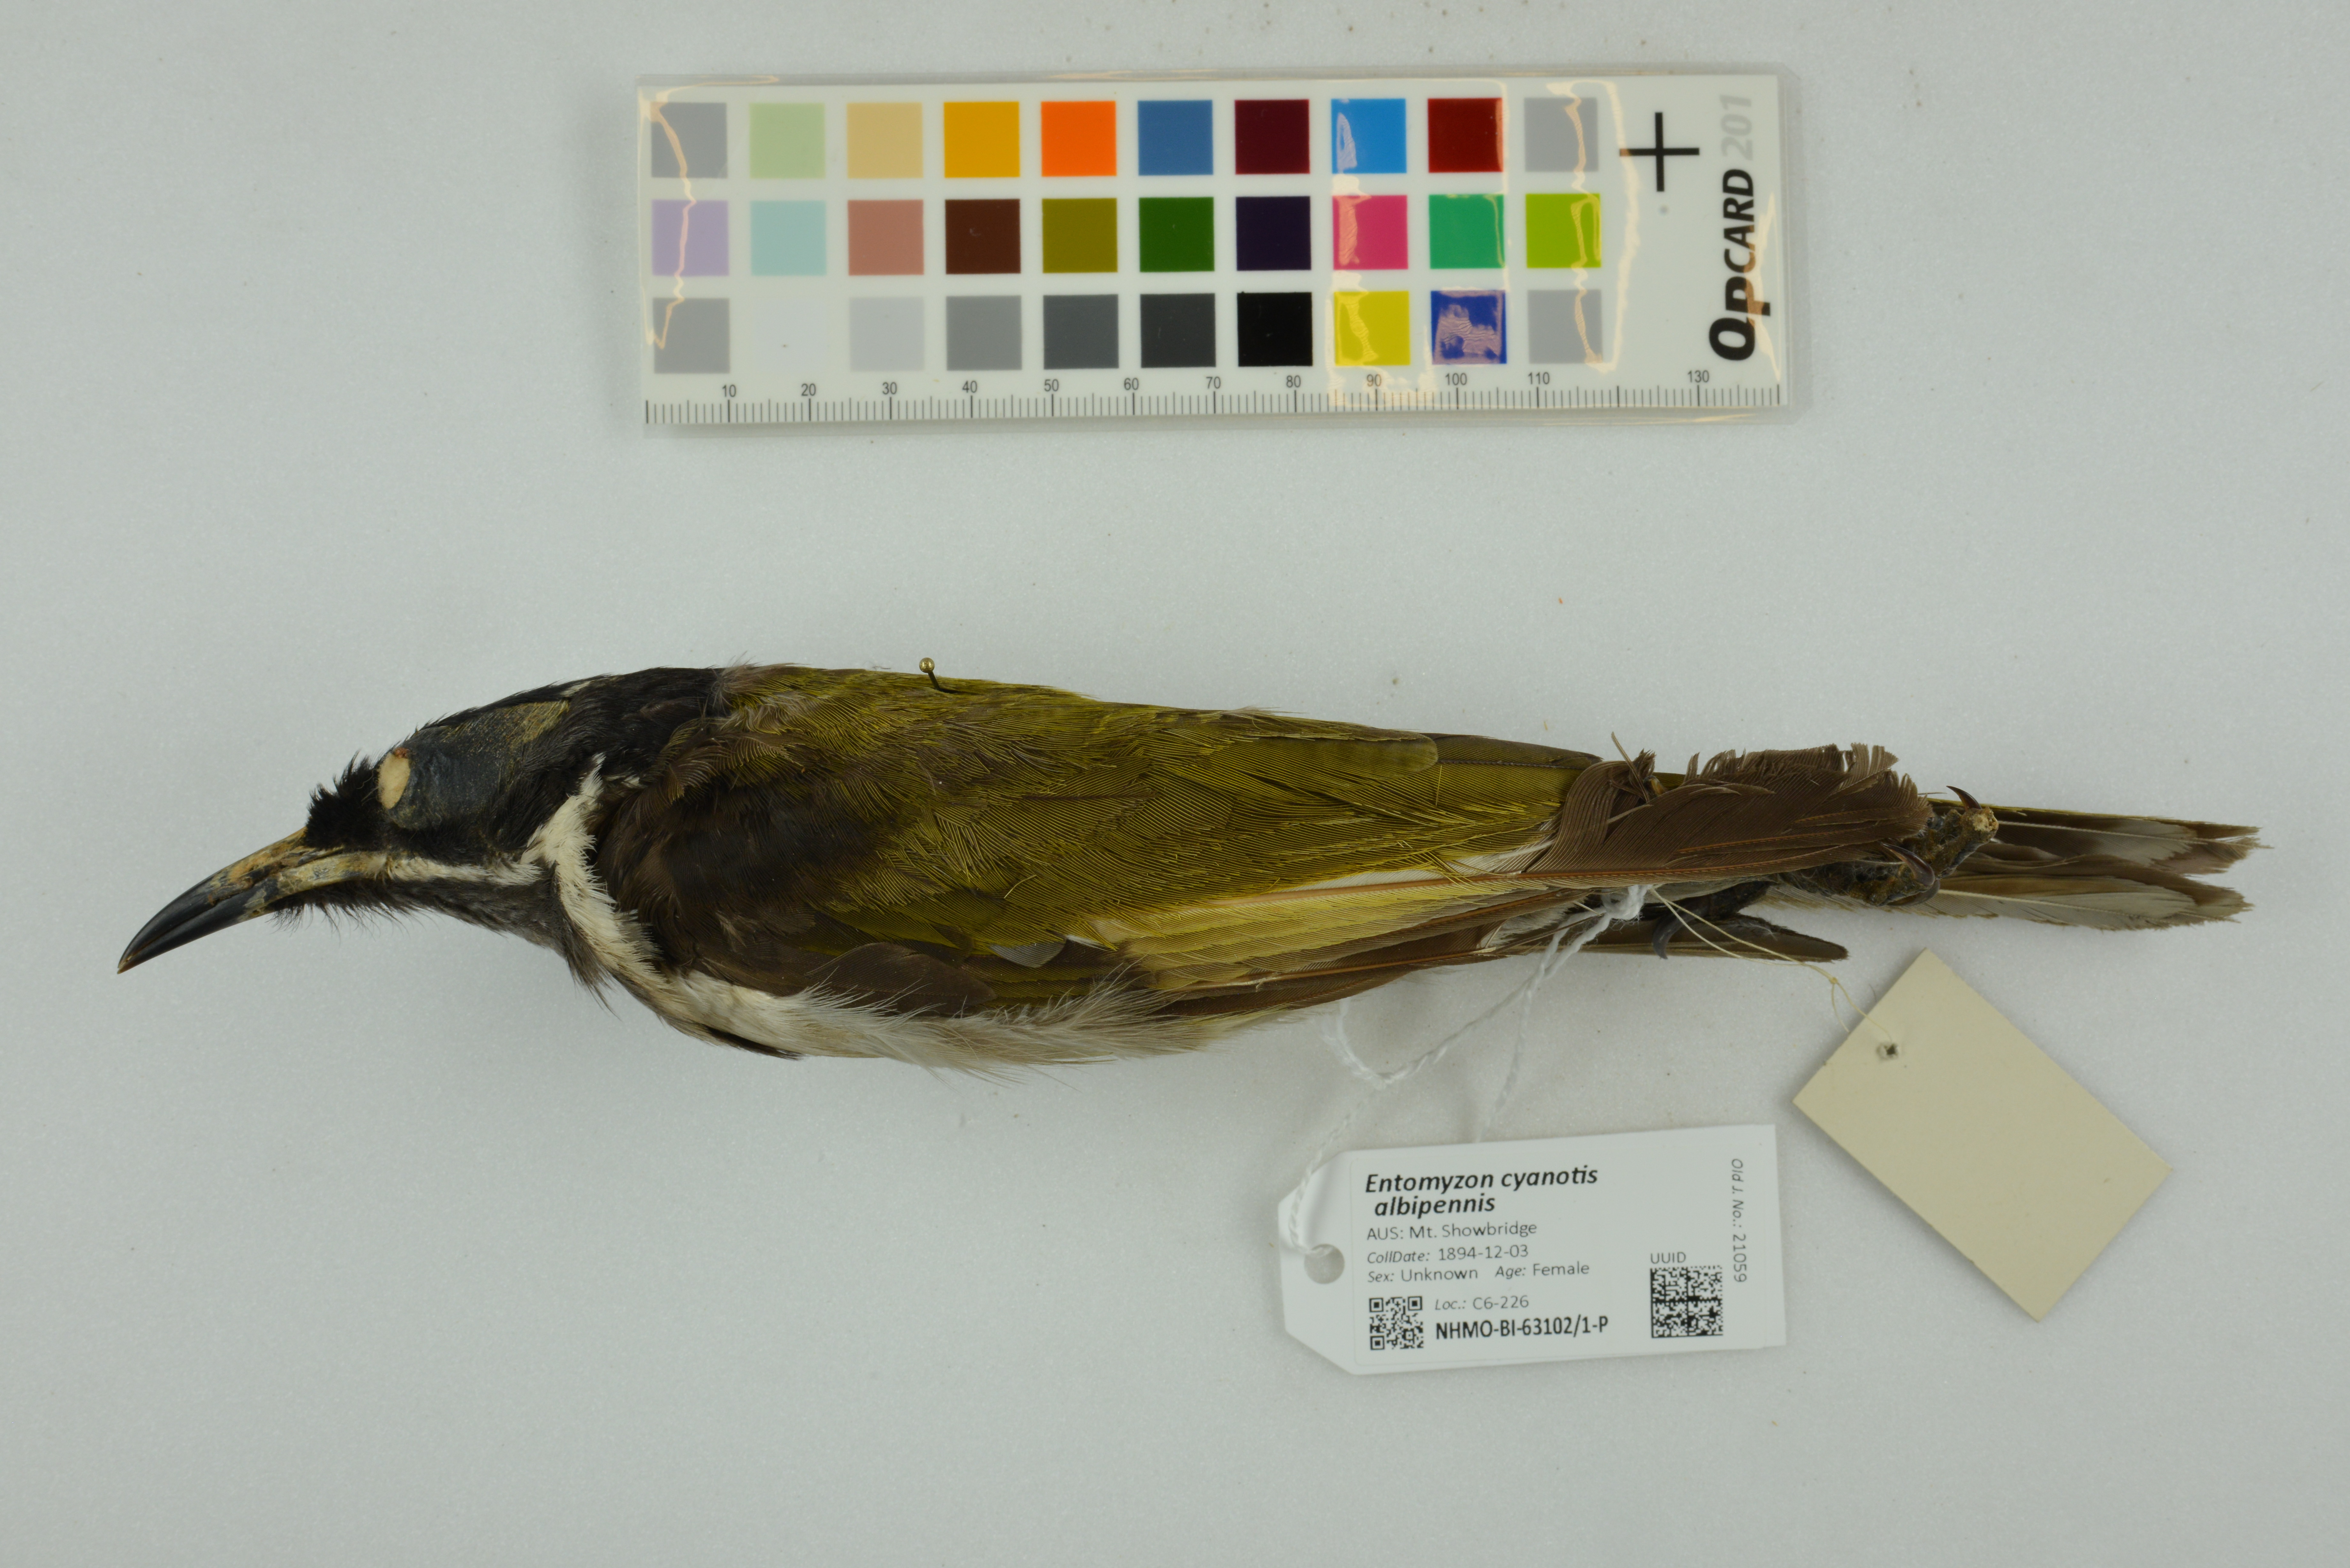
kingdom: Animalia
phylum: Chordata
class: Aves
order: Passeriformes
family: Meliphagidae
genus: Entomyzon
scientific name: Entomyzon cyanotis
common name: Blue-faced honeyeater
